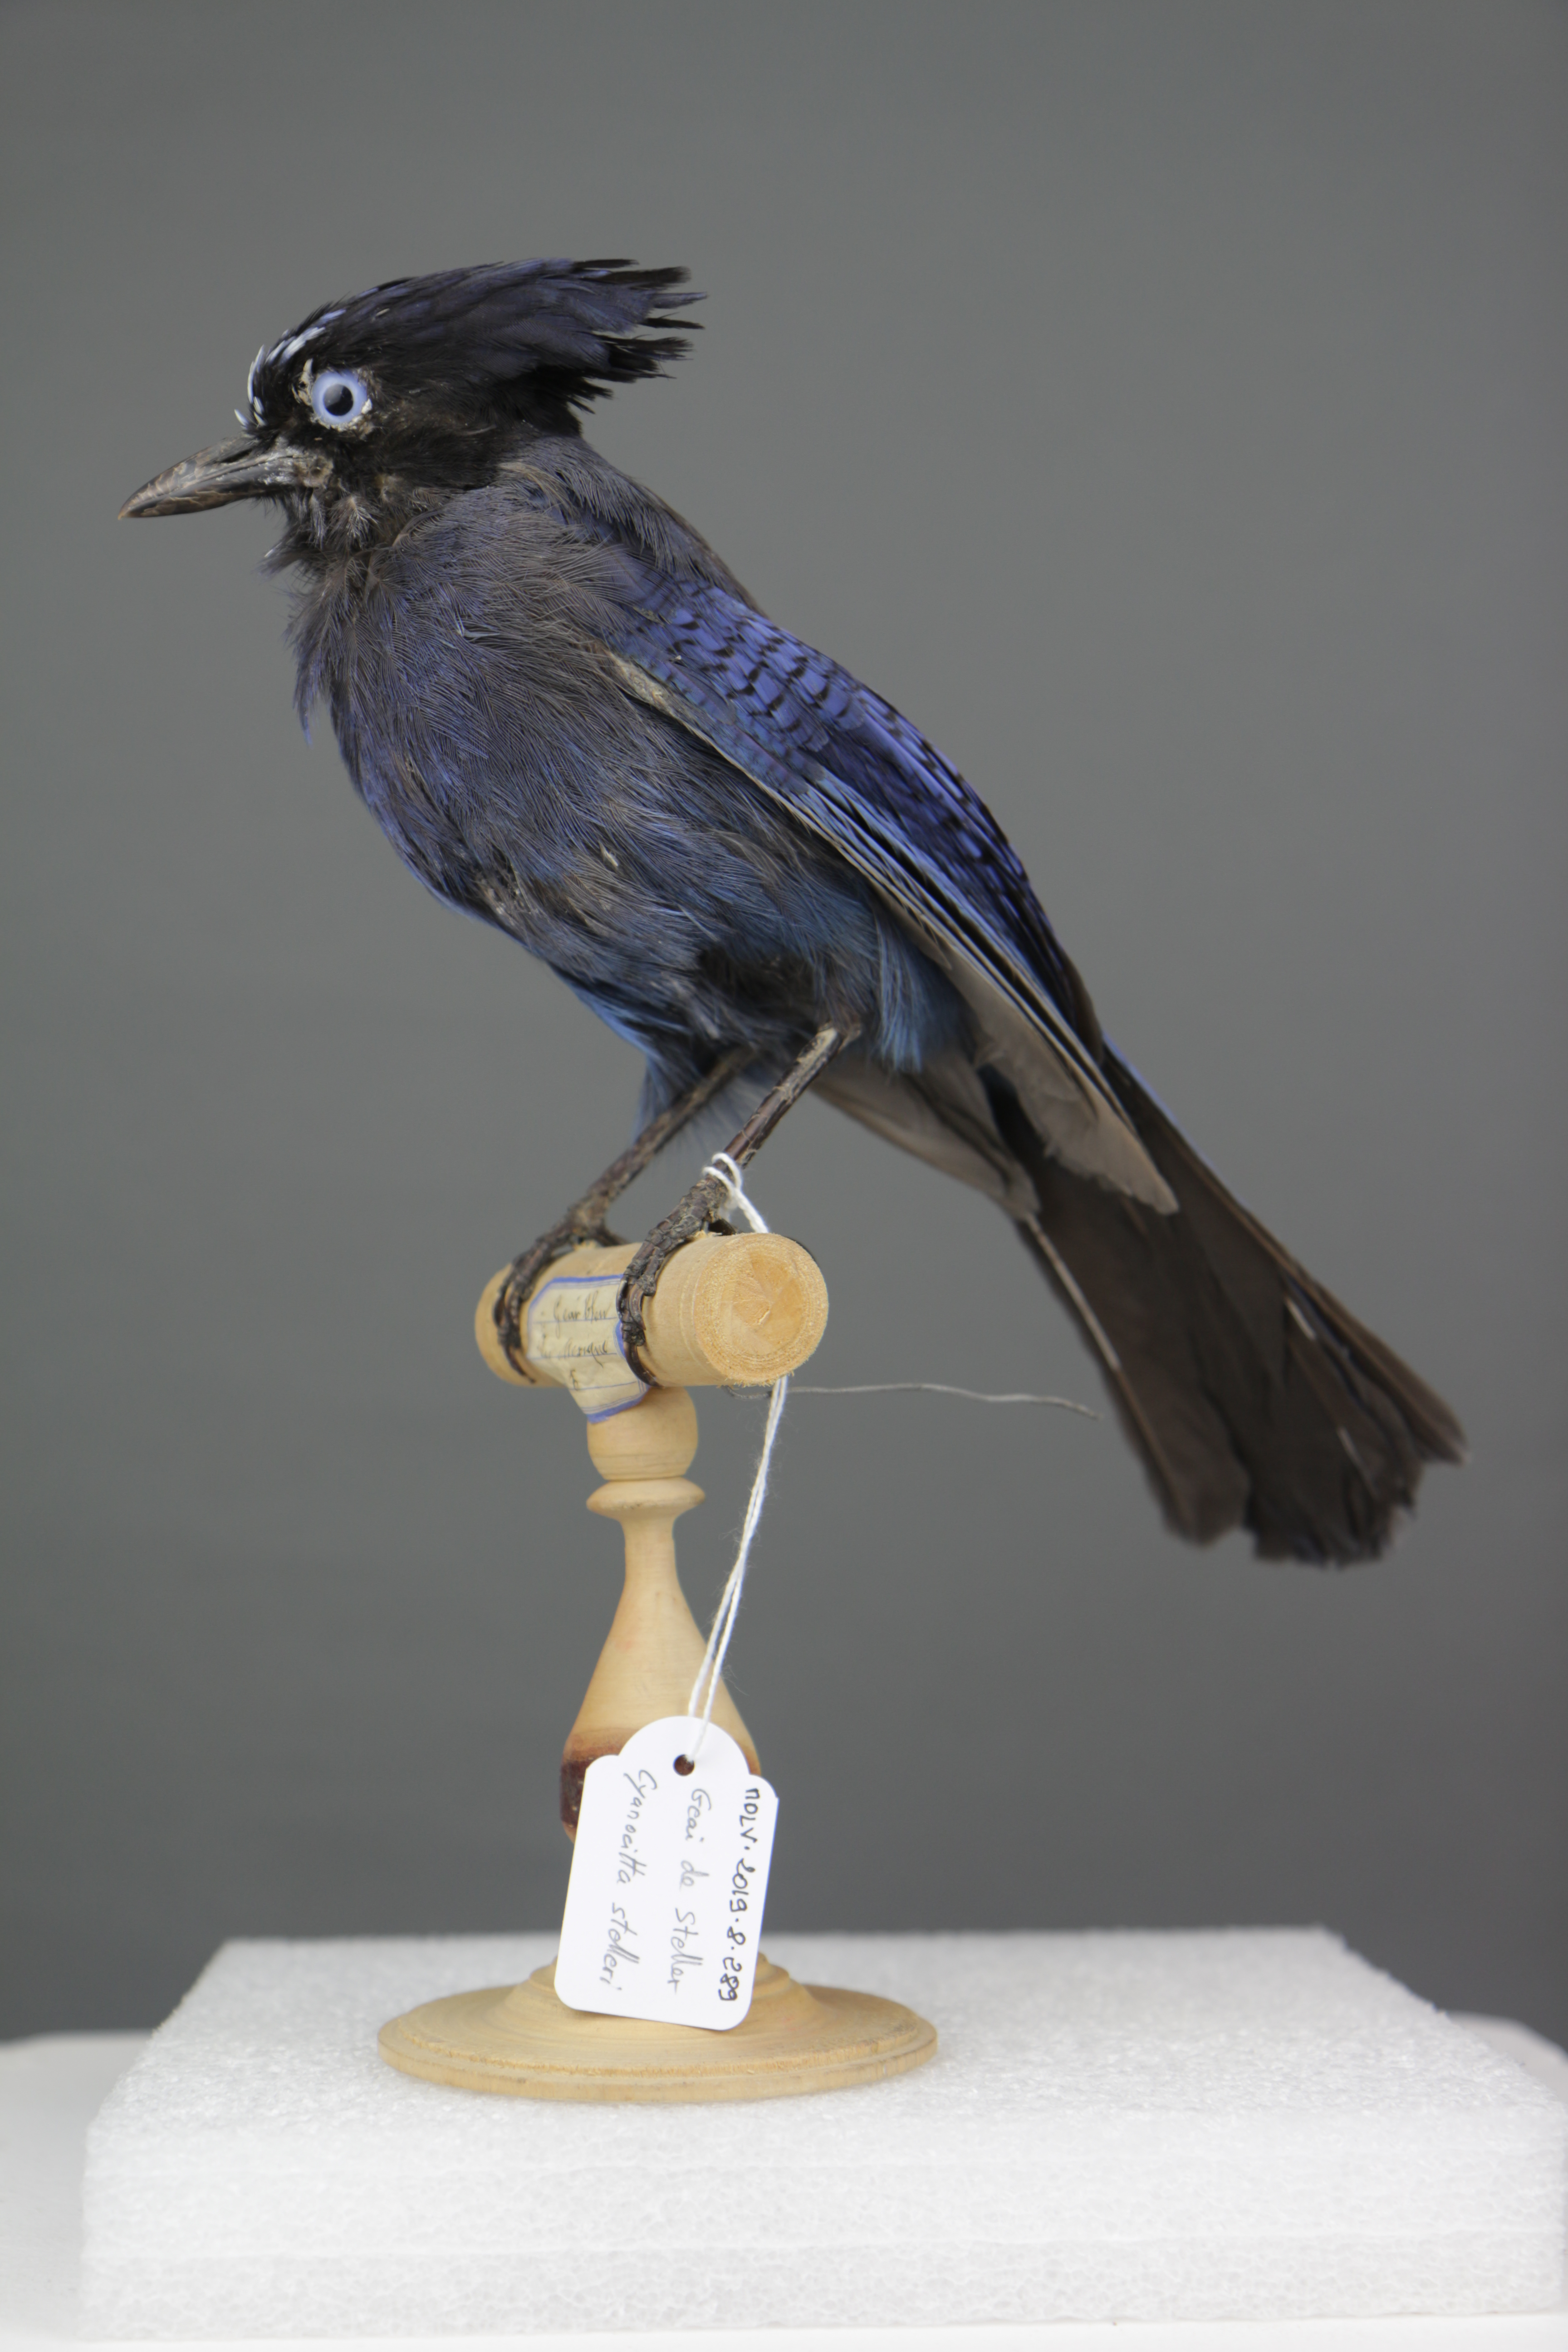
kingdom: Animalia
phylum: Chordata
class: Aves
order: Passeriformes
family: Corvidae
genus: Cyanocitta
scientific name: Cyanocitta stelleri
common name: Steller's jay
